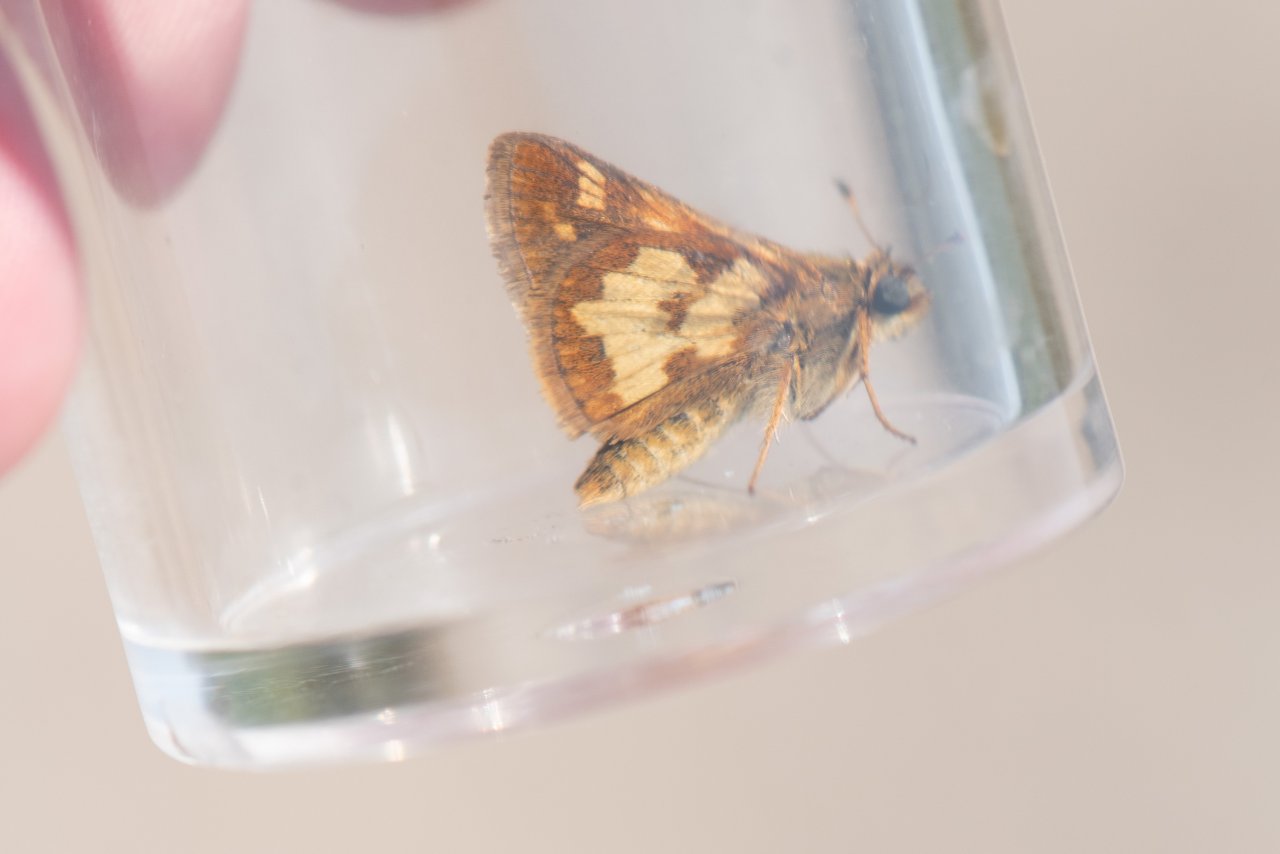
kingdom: Animalia
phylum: Arthropoda
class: Insecta
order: Lepidoptera
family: Hesperiidae
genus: Polites
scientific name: Polites coras
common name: Peck's Skipper
